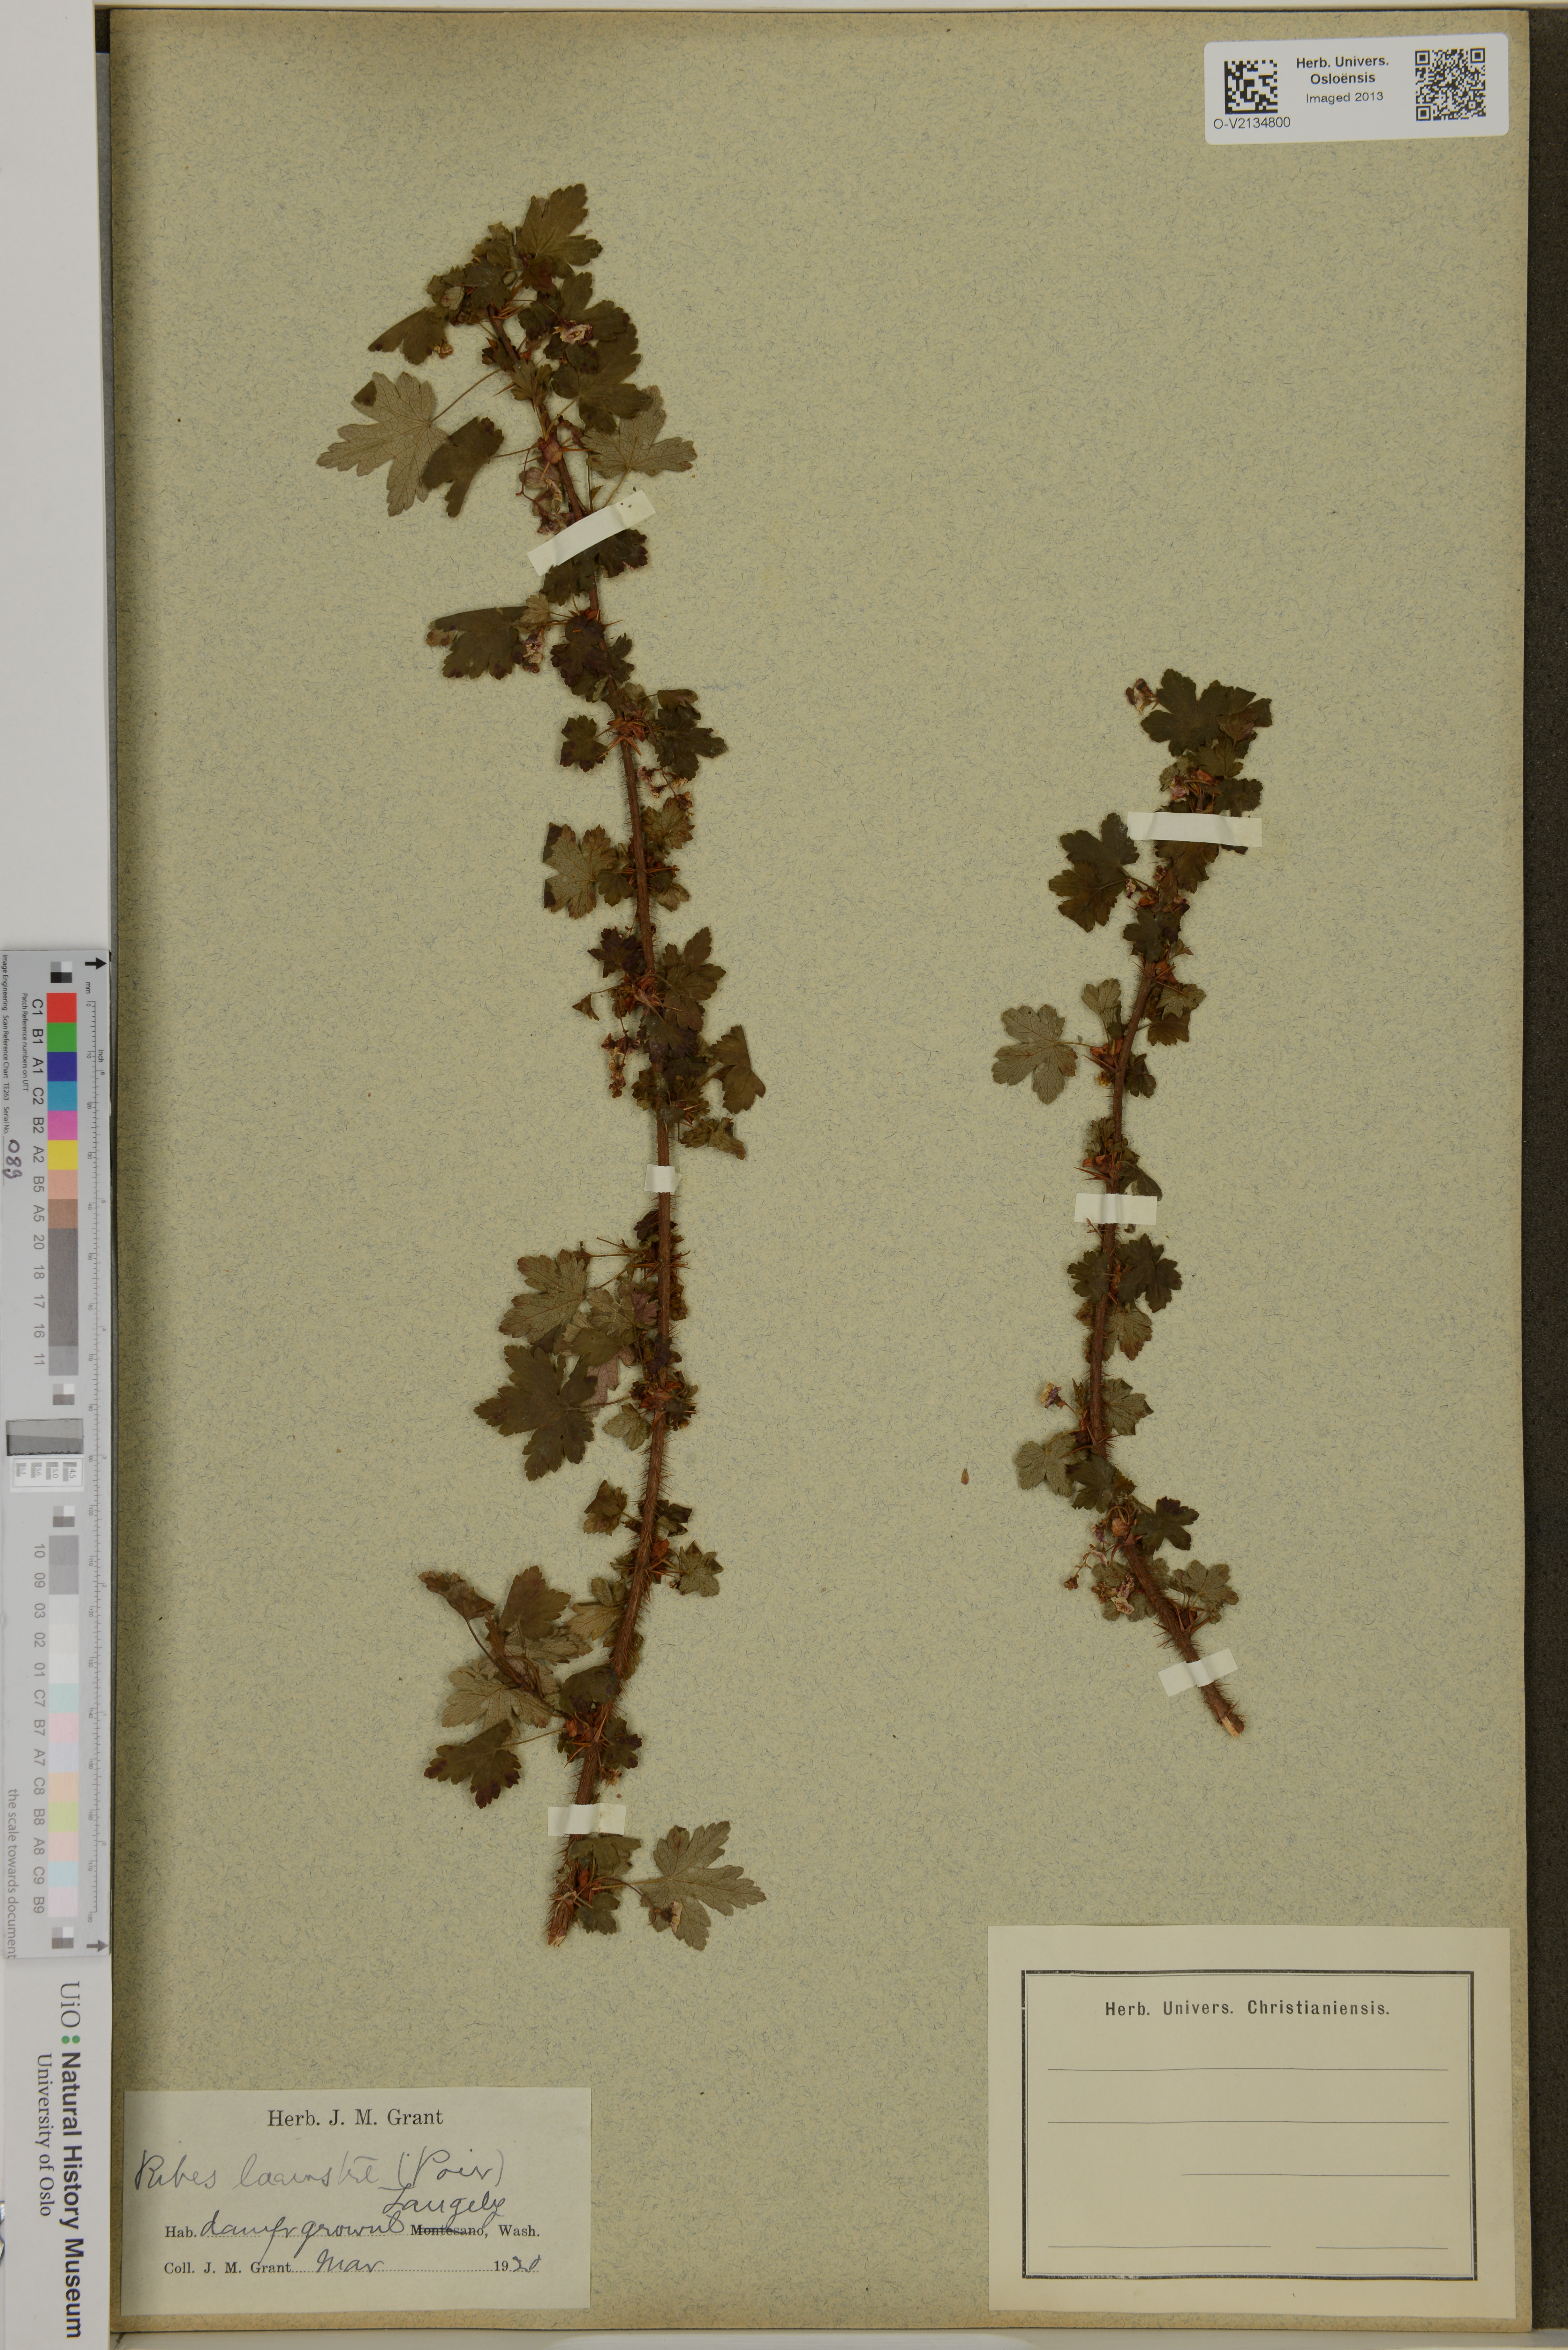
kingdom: Plantae
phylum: Tracheophyta
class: Magnoliopsida
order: Saxifragales
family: Grossulariaceae
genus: Ribes
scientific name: Ribes lacustre
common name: Black gooseberry
